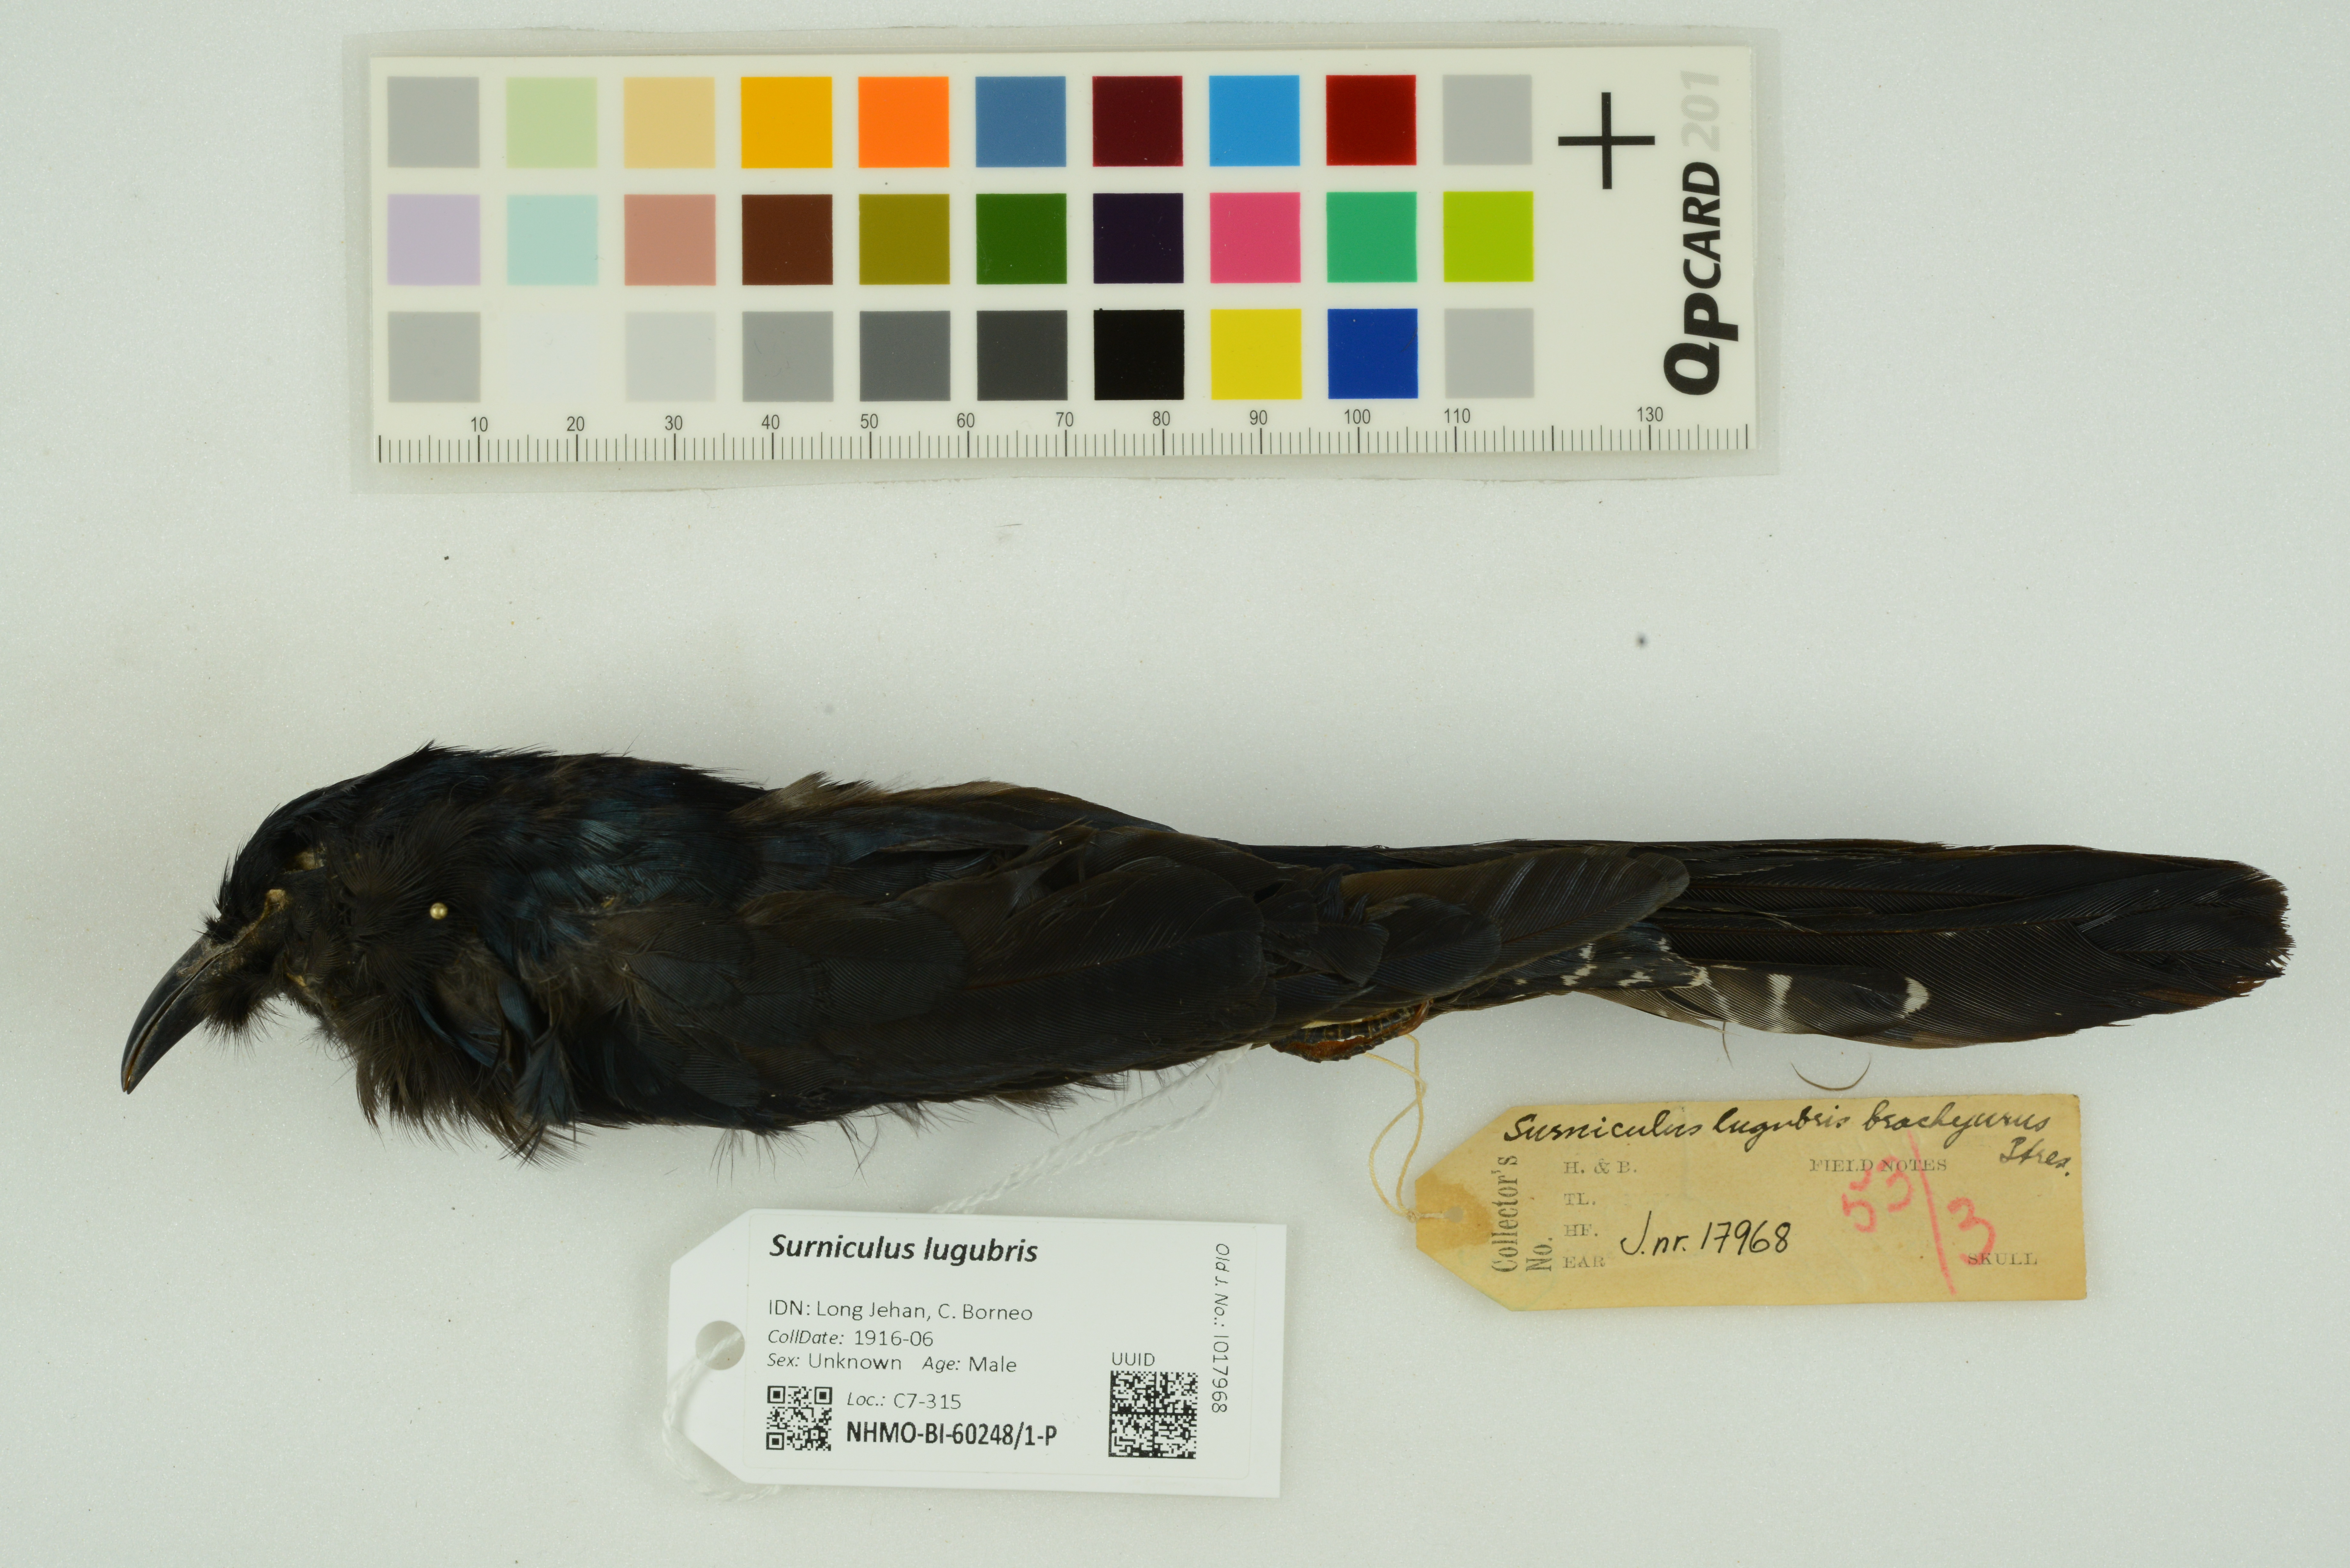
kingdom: Animalia
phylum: Chordata
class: Aves
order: Cuculiformes
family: Cuculidae
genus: Surniculus
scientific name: Surniculus lugubris
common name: Square-tailed drongo-cuckoo
